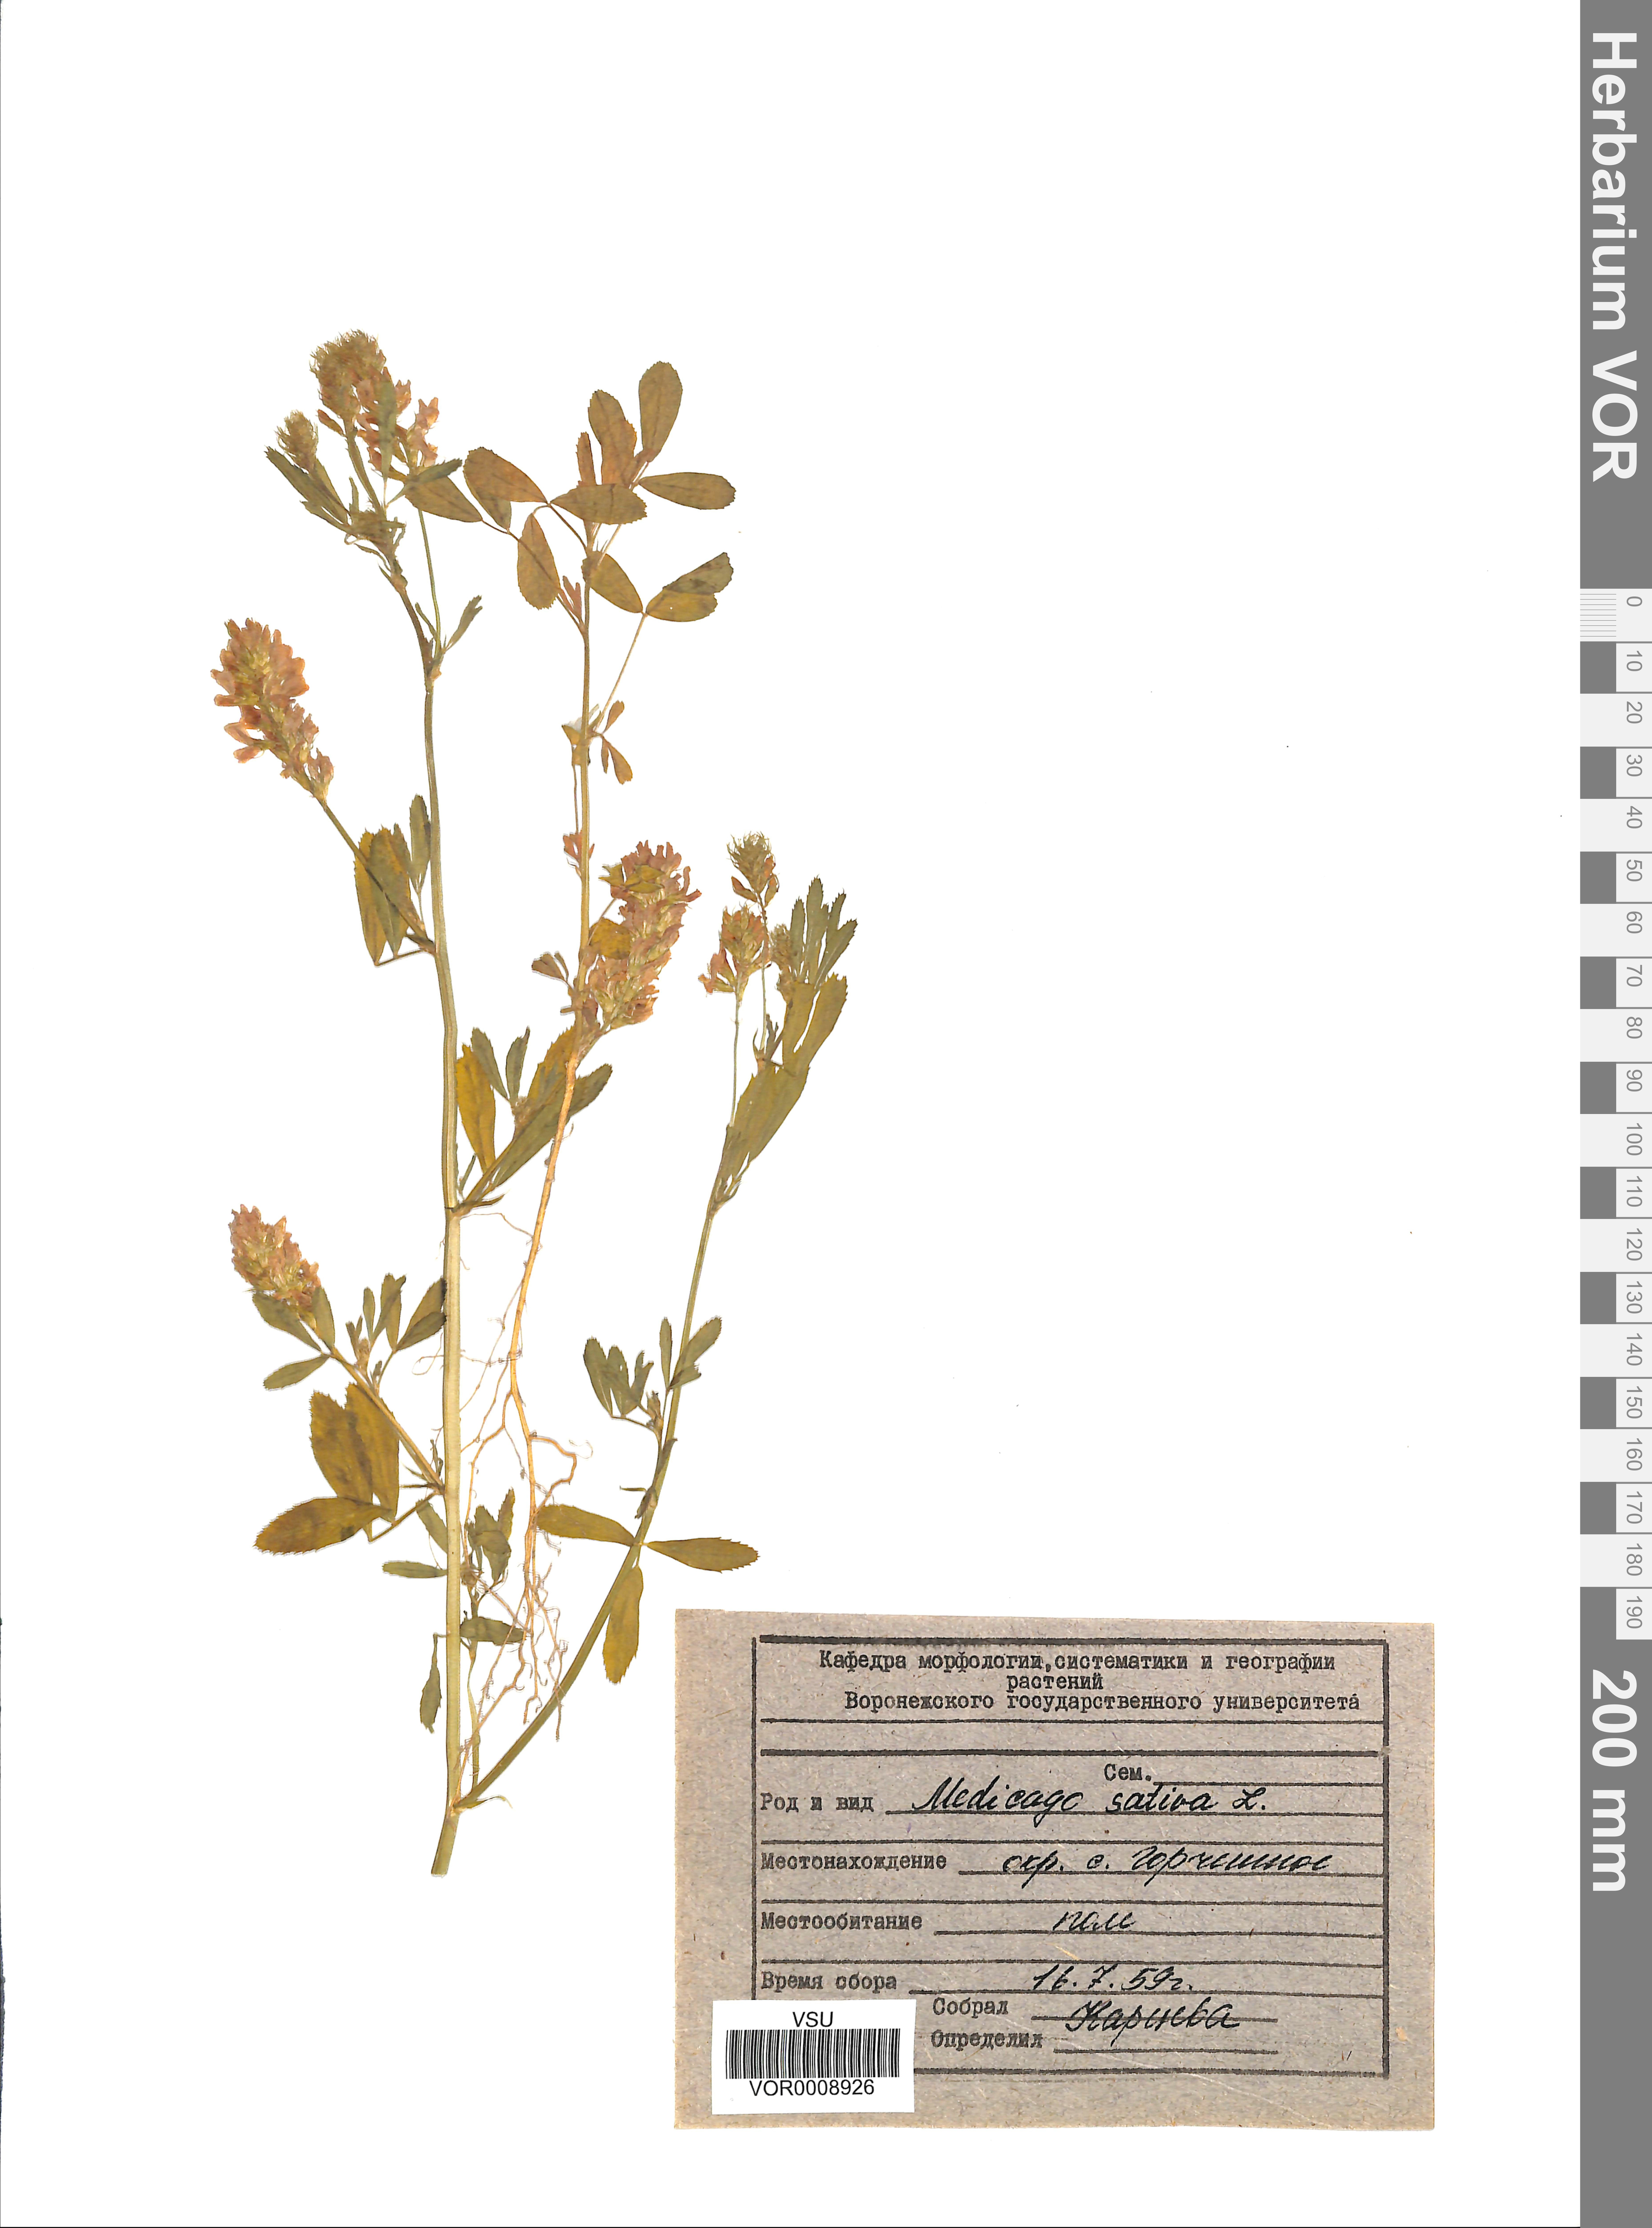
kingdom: Plantae
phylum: Tracheophyta
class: Magnoliopsida
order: Fabales
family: Fabaceae
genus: Medicago
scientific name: Medicago sativa
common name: Alfalfa
